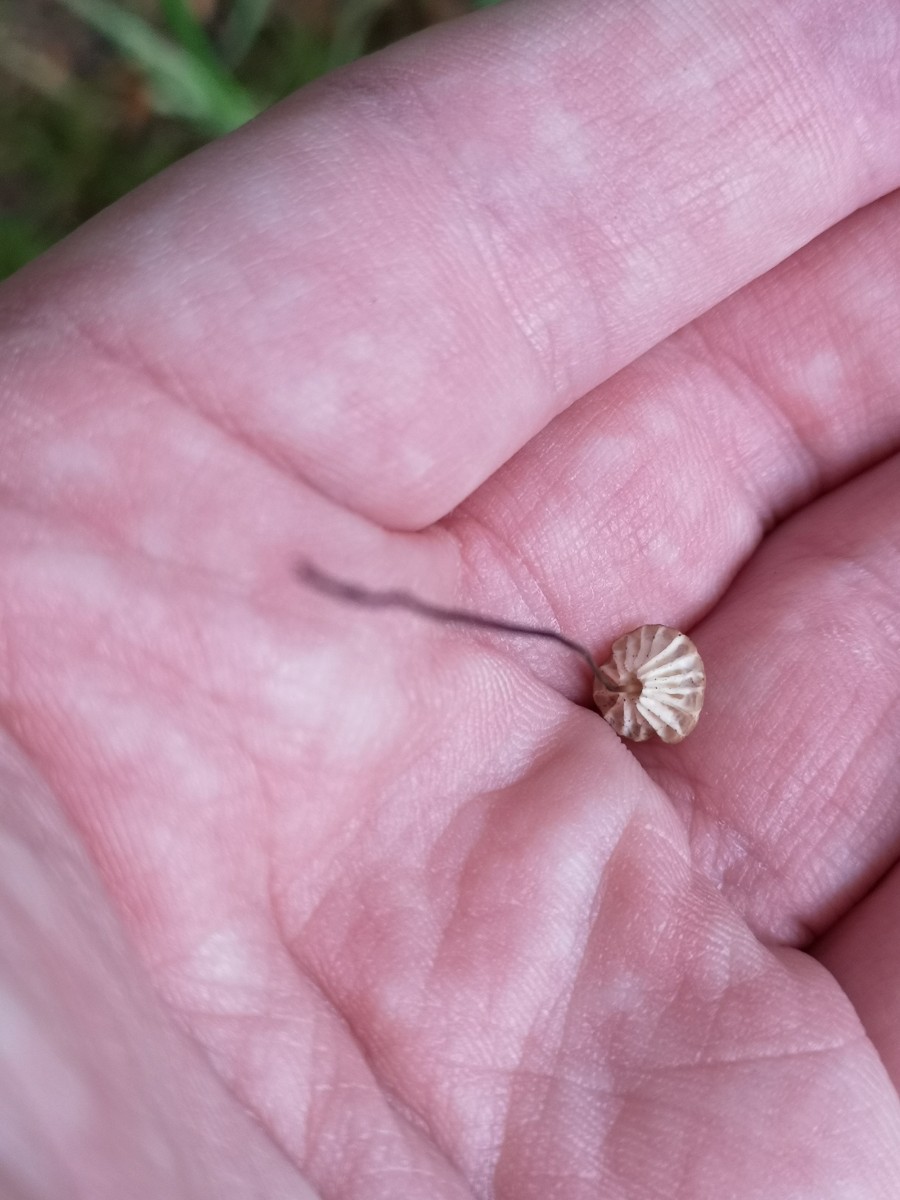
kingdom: Fungi
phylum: Basidiomycota
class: Agaricomycetes
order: Agaricales
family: Marasmiaceae
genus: Marasmius
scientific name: Marasmius rotula
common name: hjul-bruskhat
